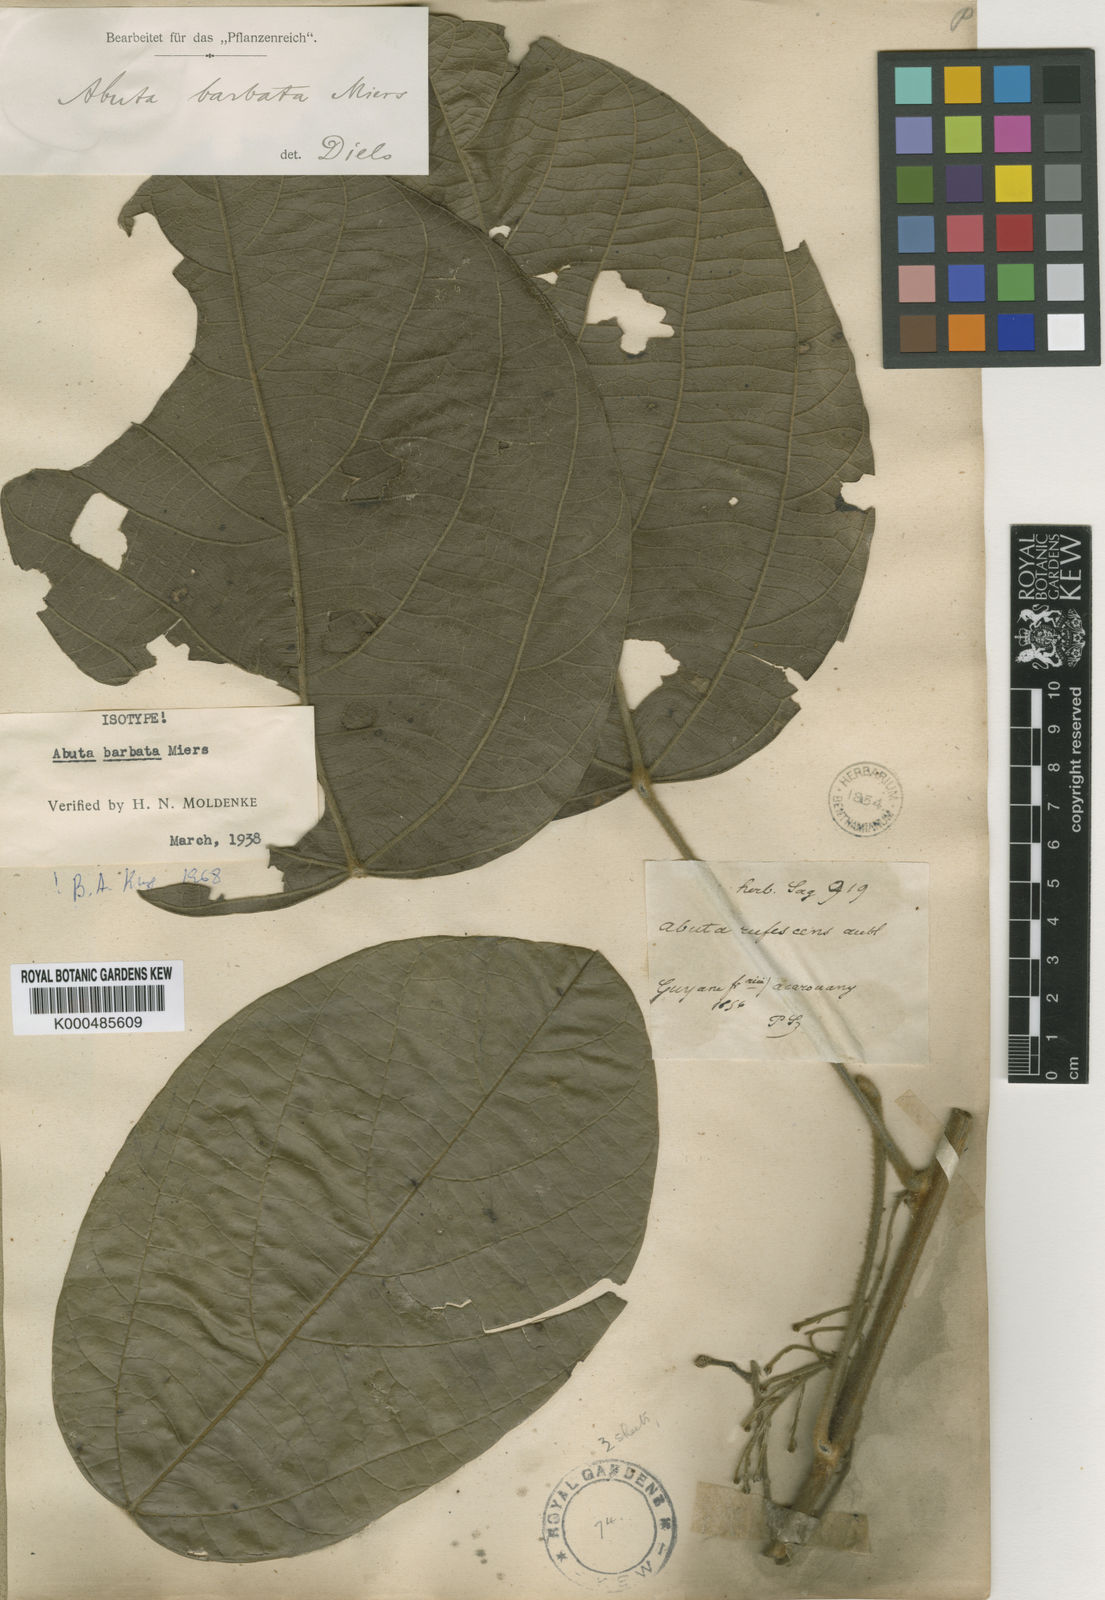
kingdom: Plantae
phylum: Tracheophyta
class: Magnoliopsida
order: Ranunculales
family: Menispermaceae
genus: Abuta
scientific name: Abuta barbata
